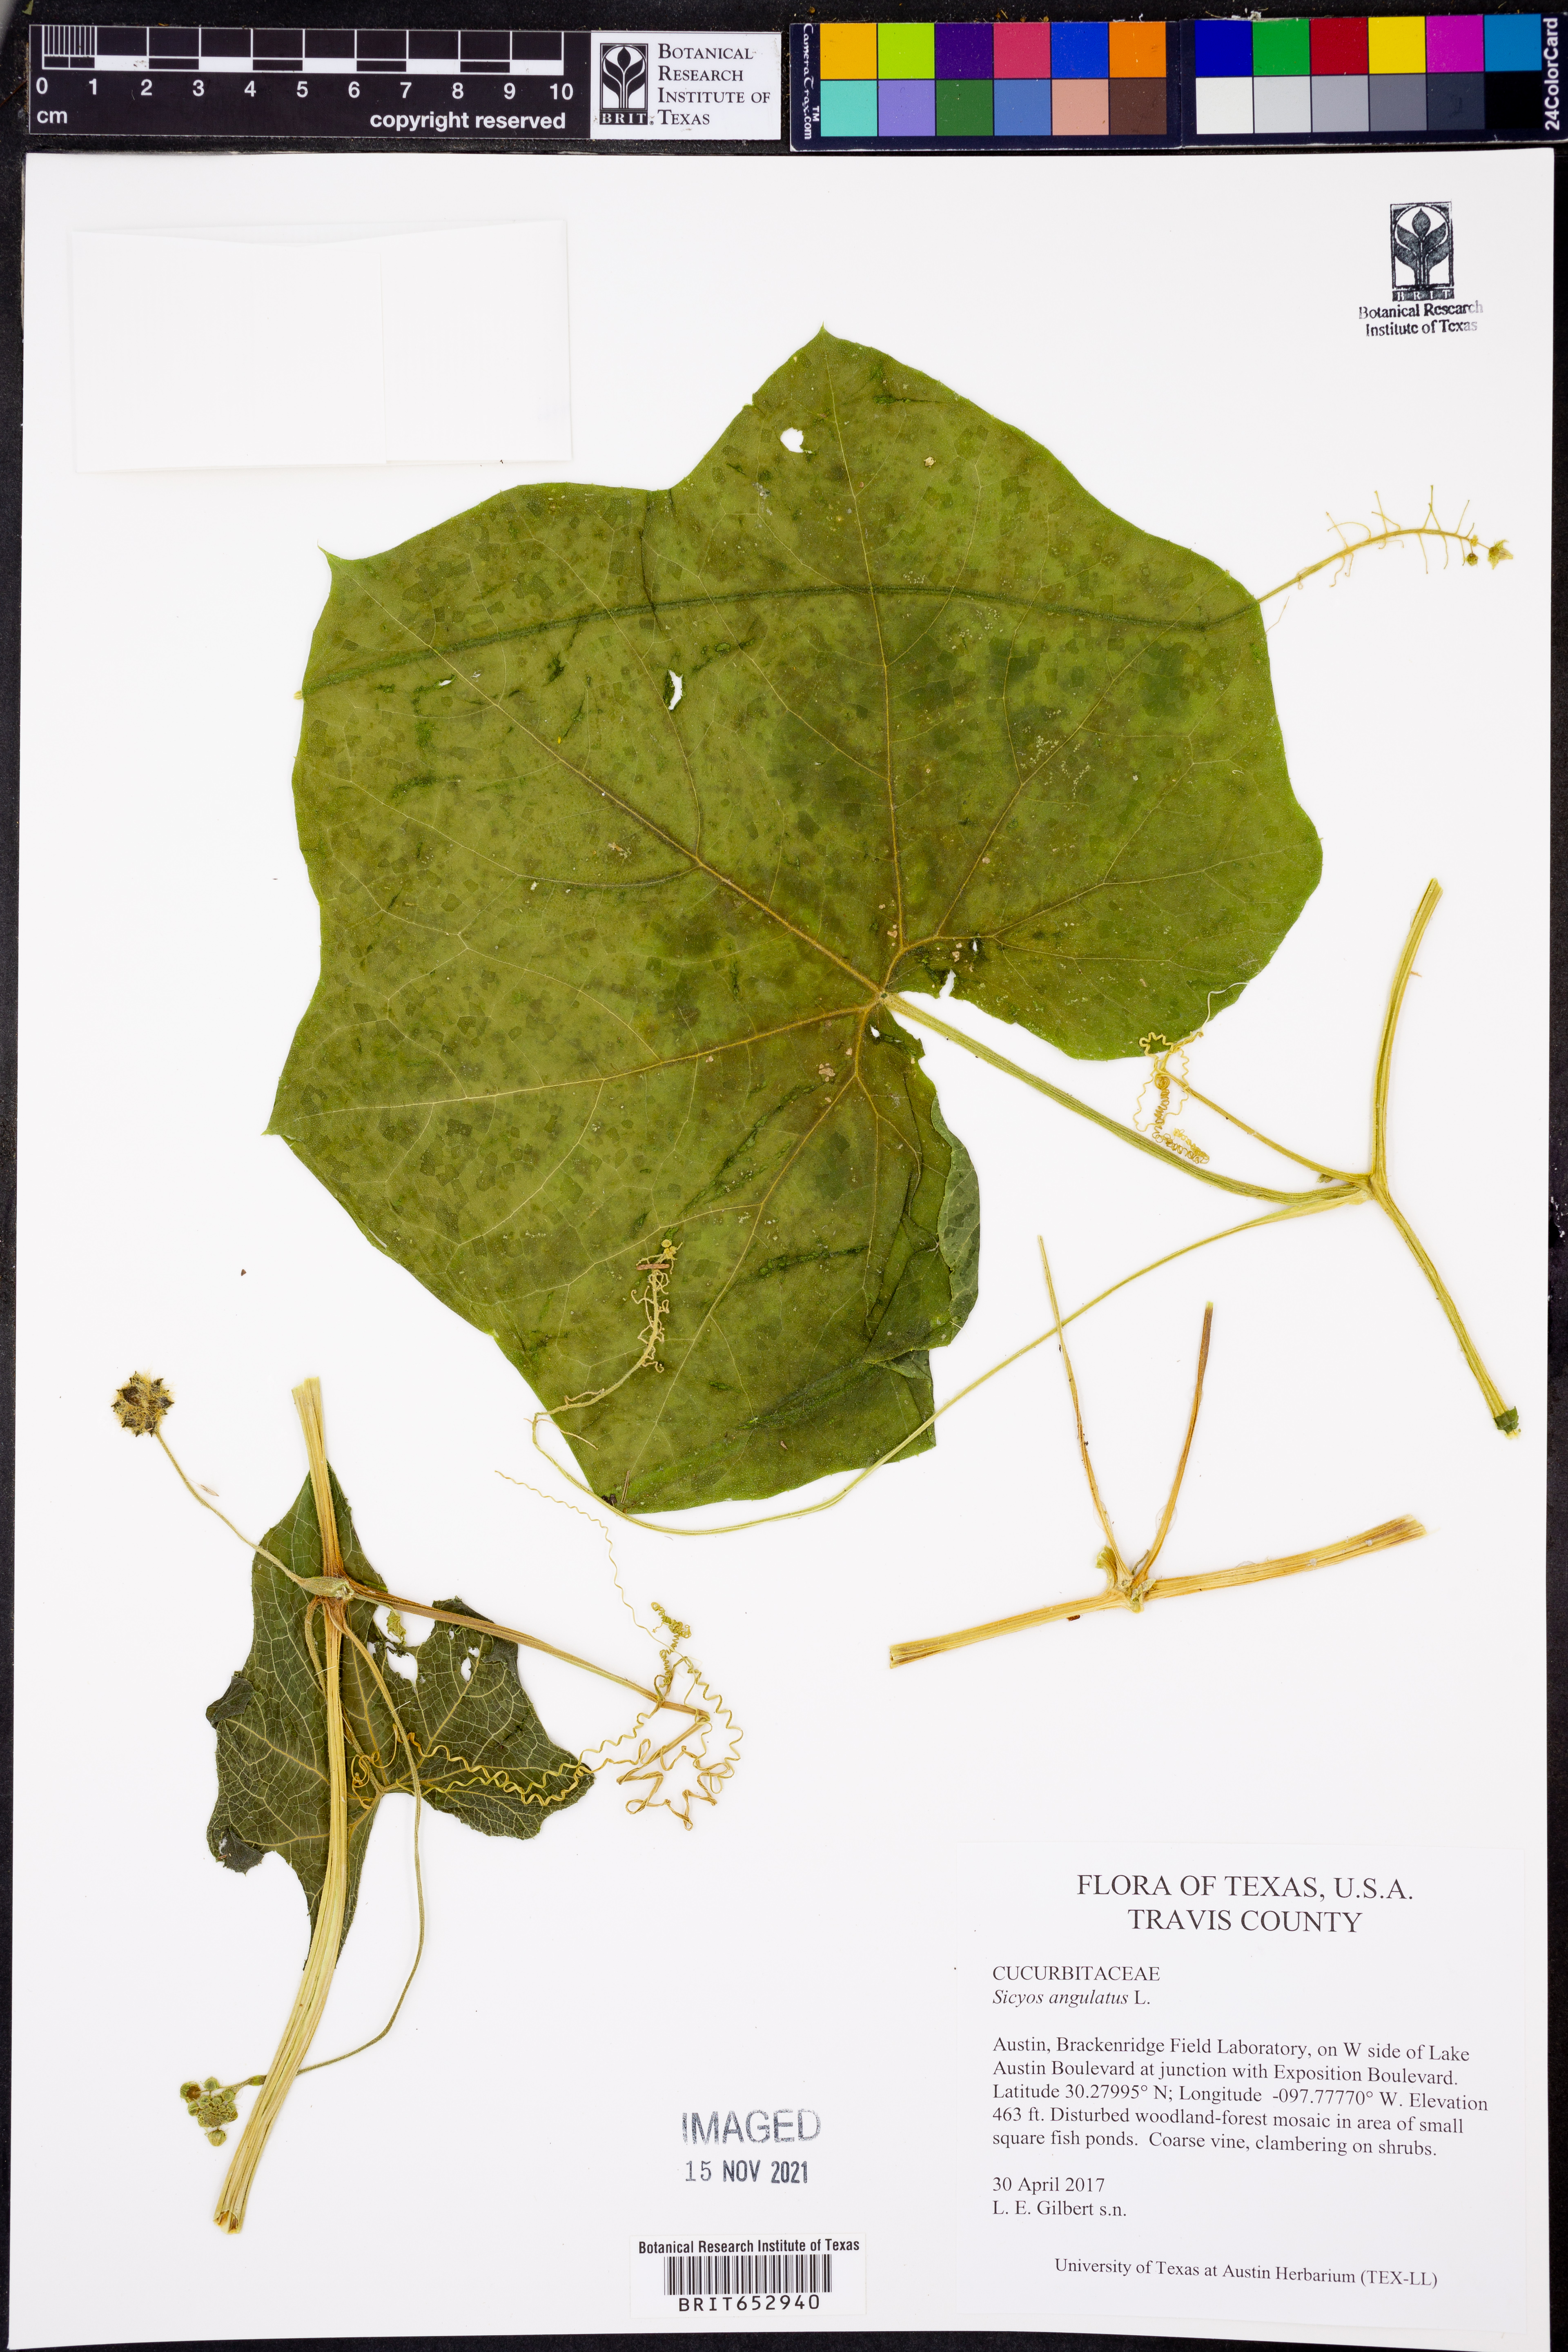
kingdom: Plantae
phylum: Tracheophyta
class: Magnoliopsida
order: Cucurbitales
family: Cucurbitaceae
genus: Sicyos
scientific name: Sicyos angulatus
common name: Angled burr cucumber
